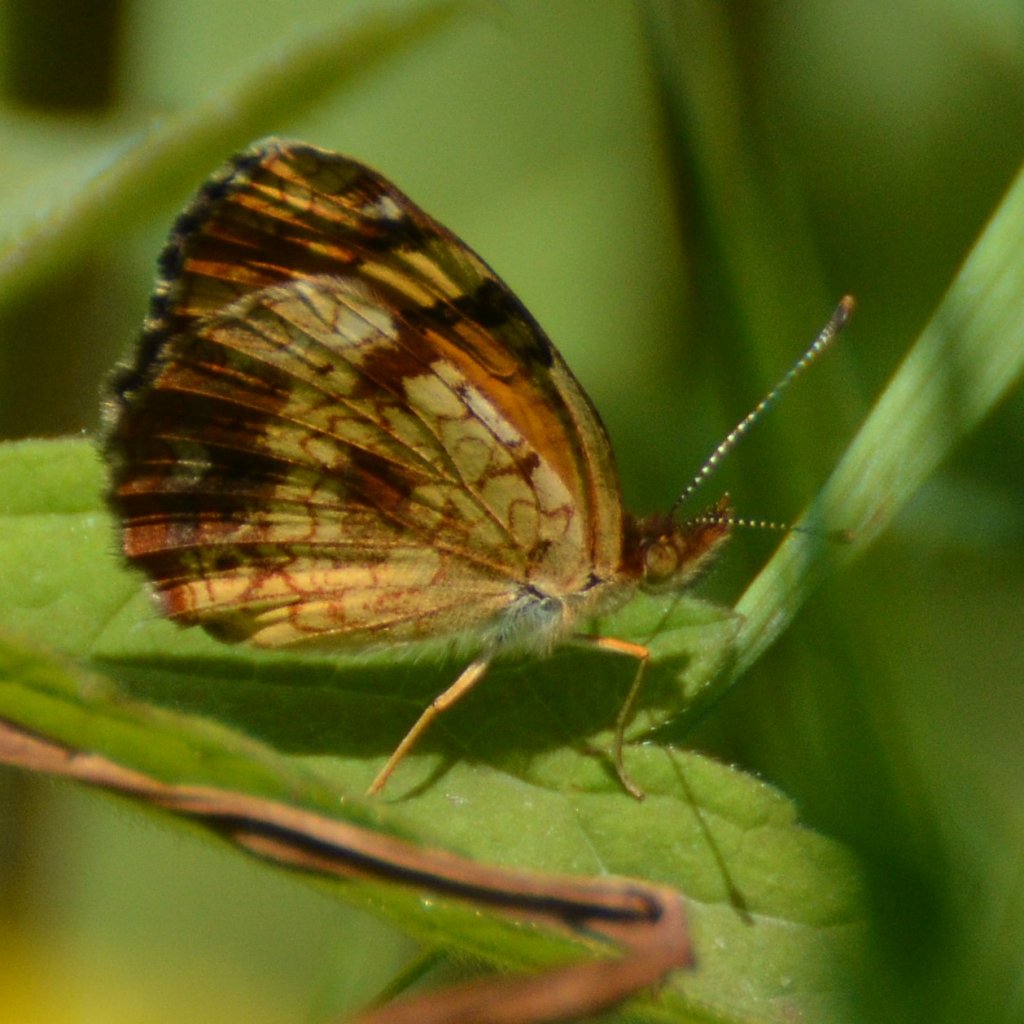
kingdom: Animalia
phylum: Arthropoda
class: Insecta
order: Lepidoptera
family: Nymphalidae
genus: Phyciodes
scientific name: Phyciodes tharos
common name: Northern Crescent
